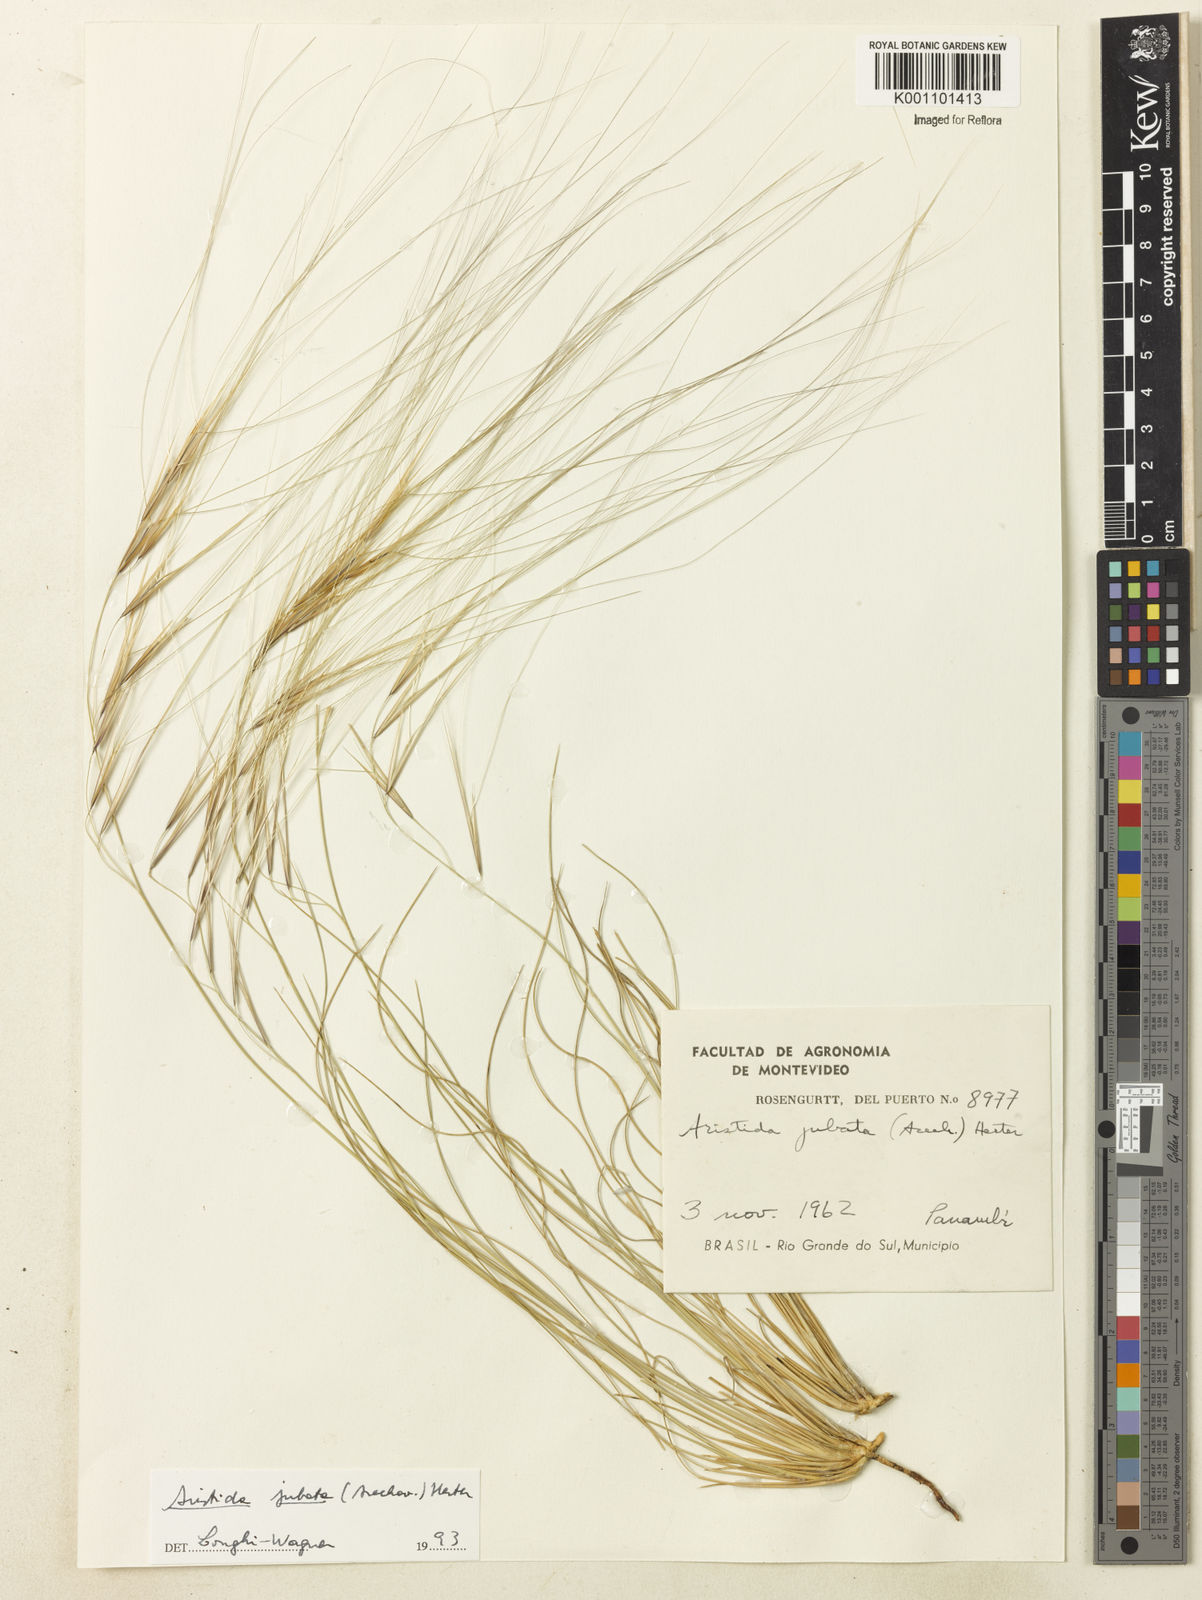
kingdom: Plantae
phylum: Tracheophyta
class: Liliopsida
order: Poales
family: Poaceae
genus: Aristida
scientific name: Aristida jubata
